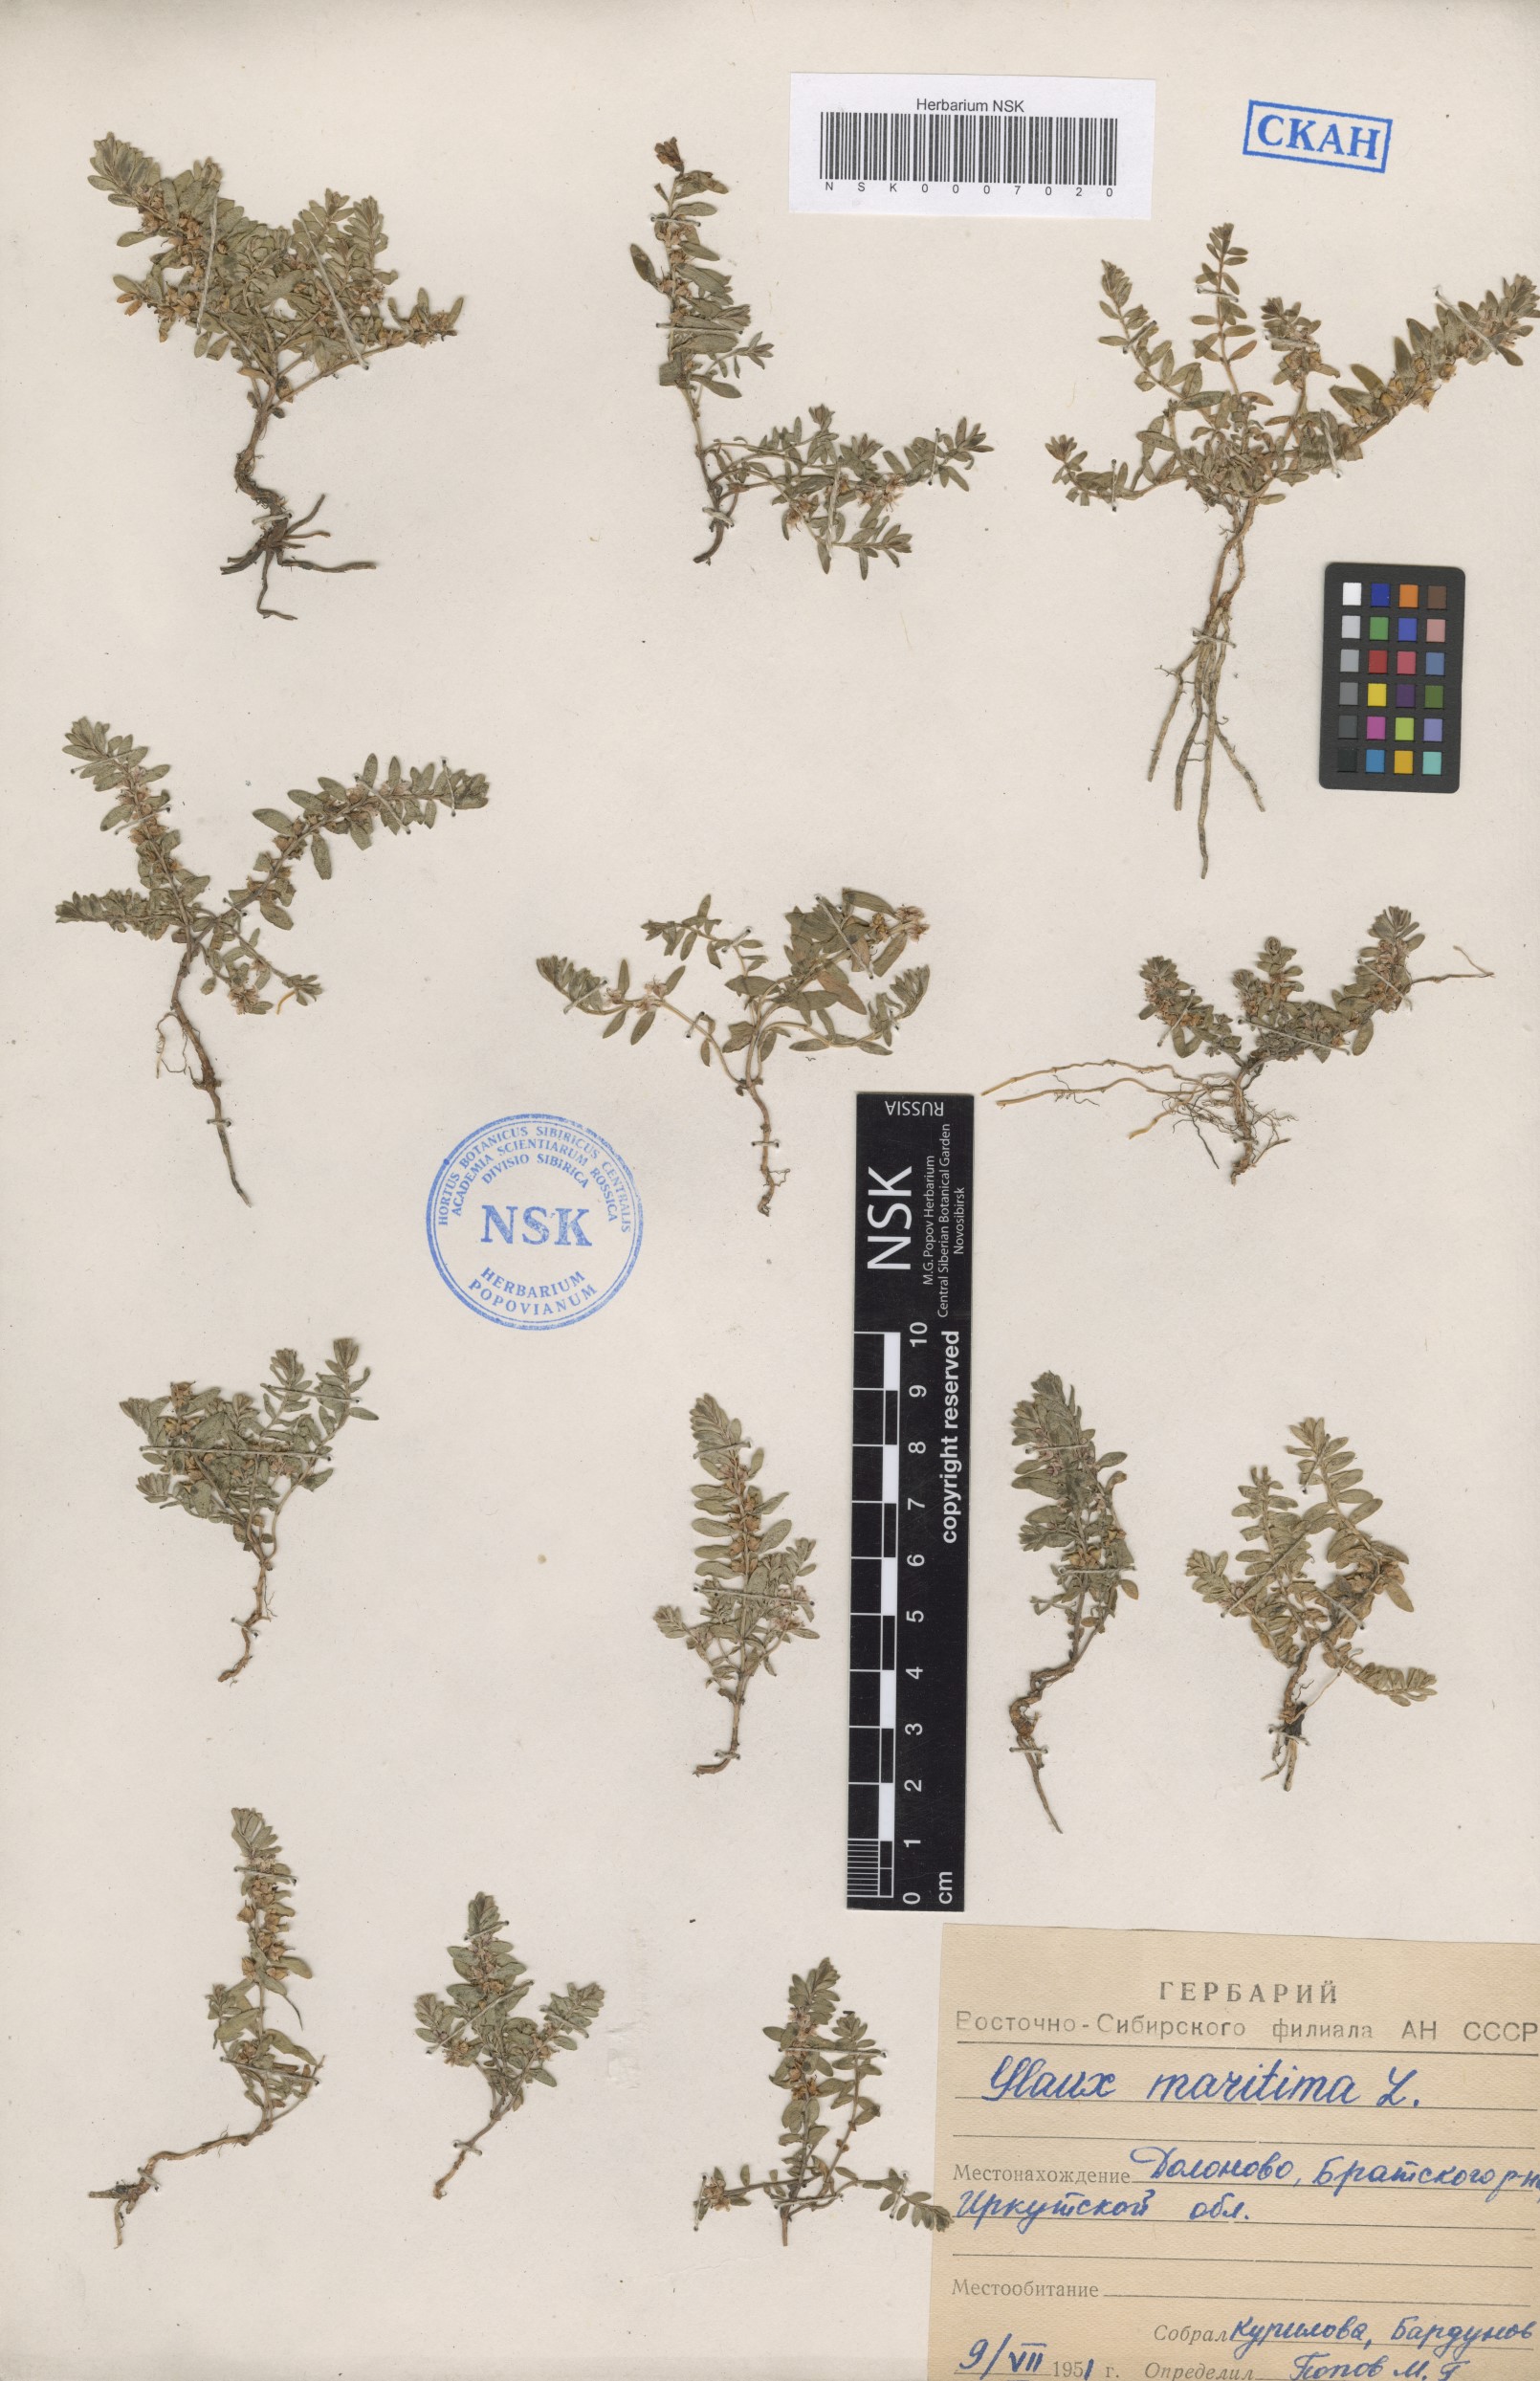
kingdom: Plantae
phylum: Tracheophyta
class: Magnoliopsida
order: Ericales
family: Primulaceae
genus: Lysimachia
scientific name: Lysimachia maritima
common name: Sea milkwort
